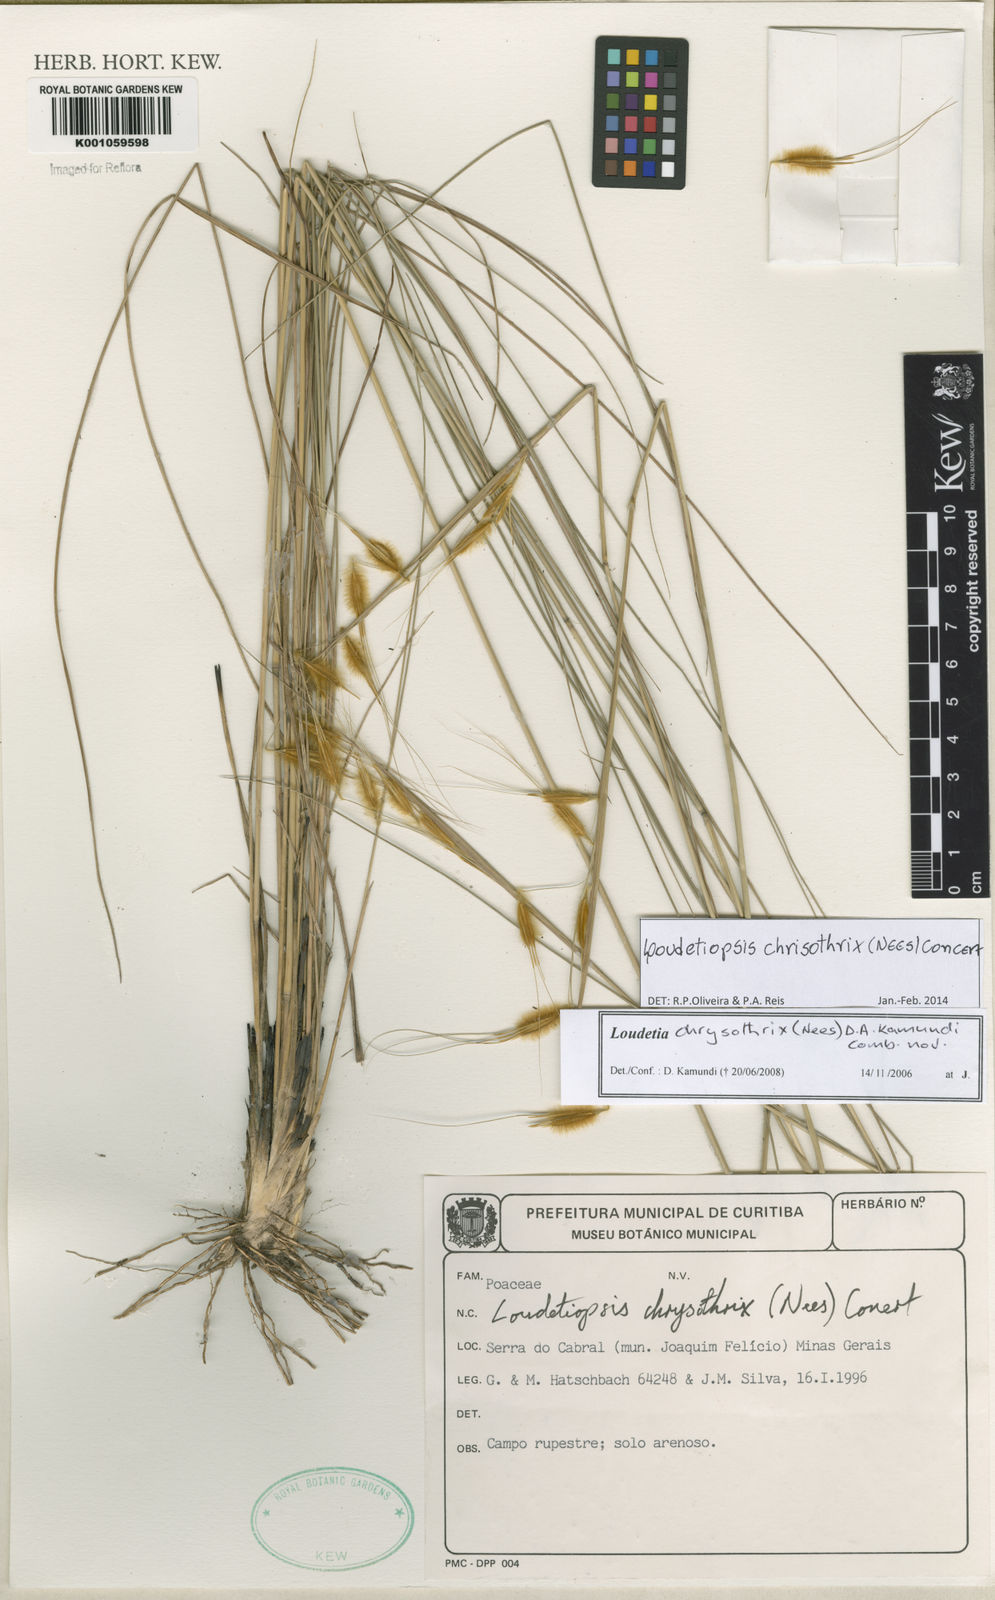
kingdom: Plantae
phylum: Tracheophyta
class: Liliopsida
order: Poales
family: Poaceae
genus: Loudetiopsis
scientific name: Loudetiopsis chrysothrix
